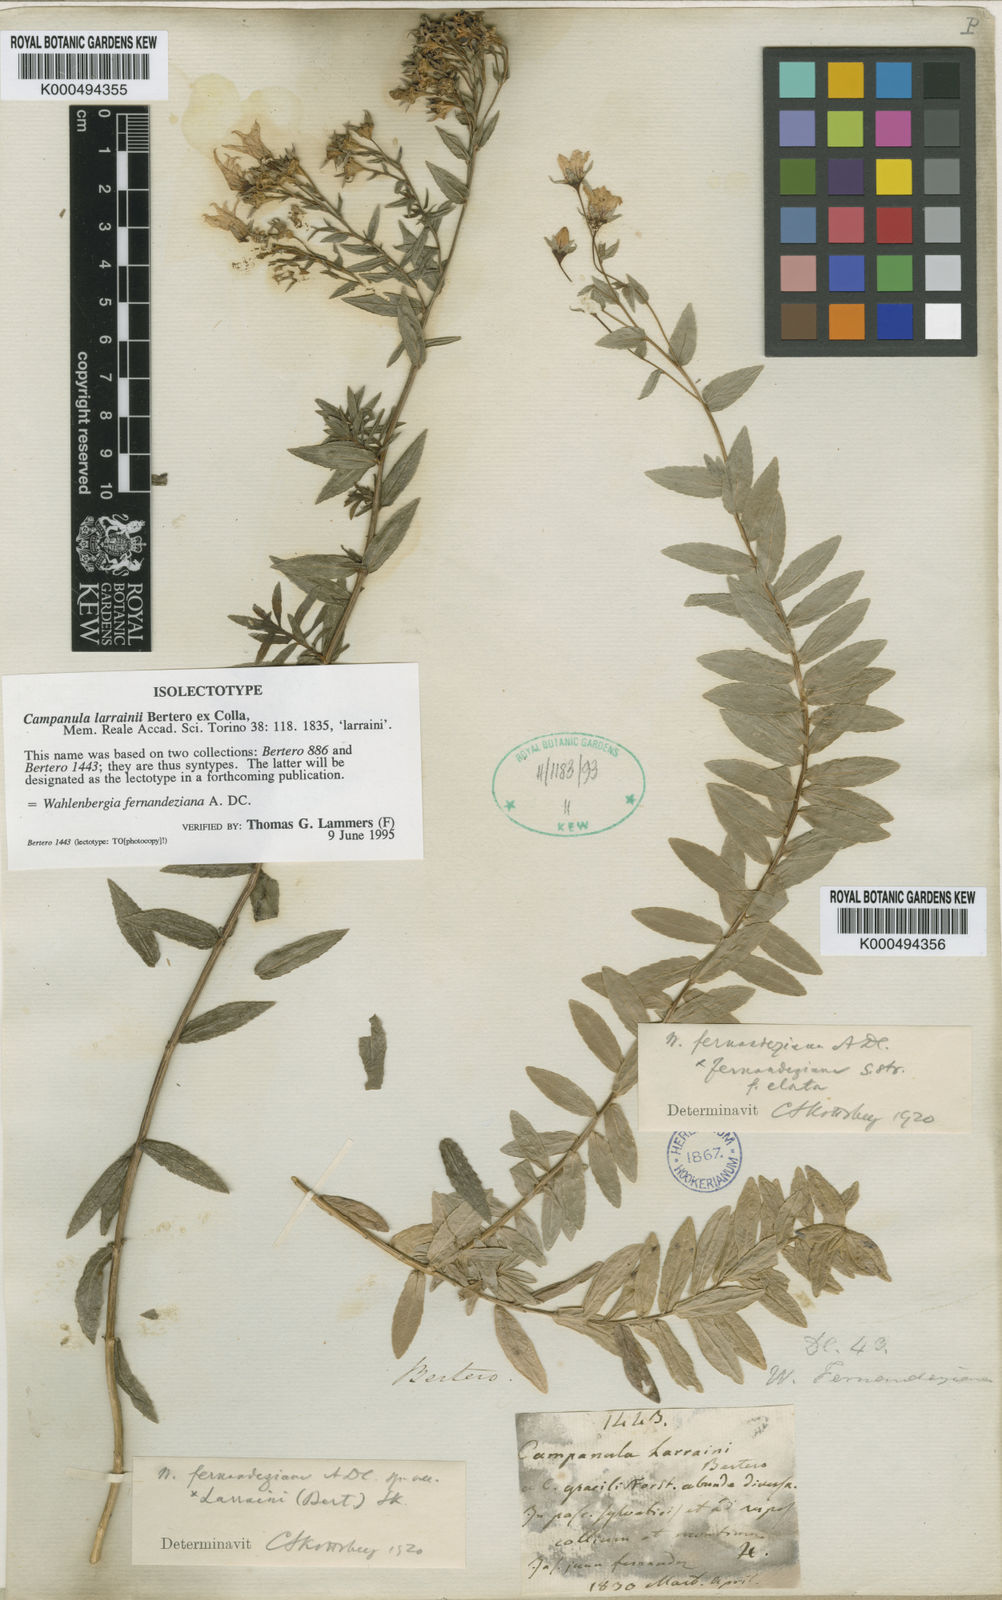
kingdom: Plantae
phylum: Tracheophyta
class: Magnoliopsida
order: Asterales
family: Campanulaceae
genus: Wahlenbergia
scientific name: Wahlenbergia fernandeziana
